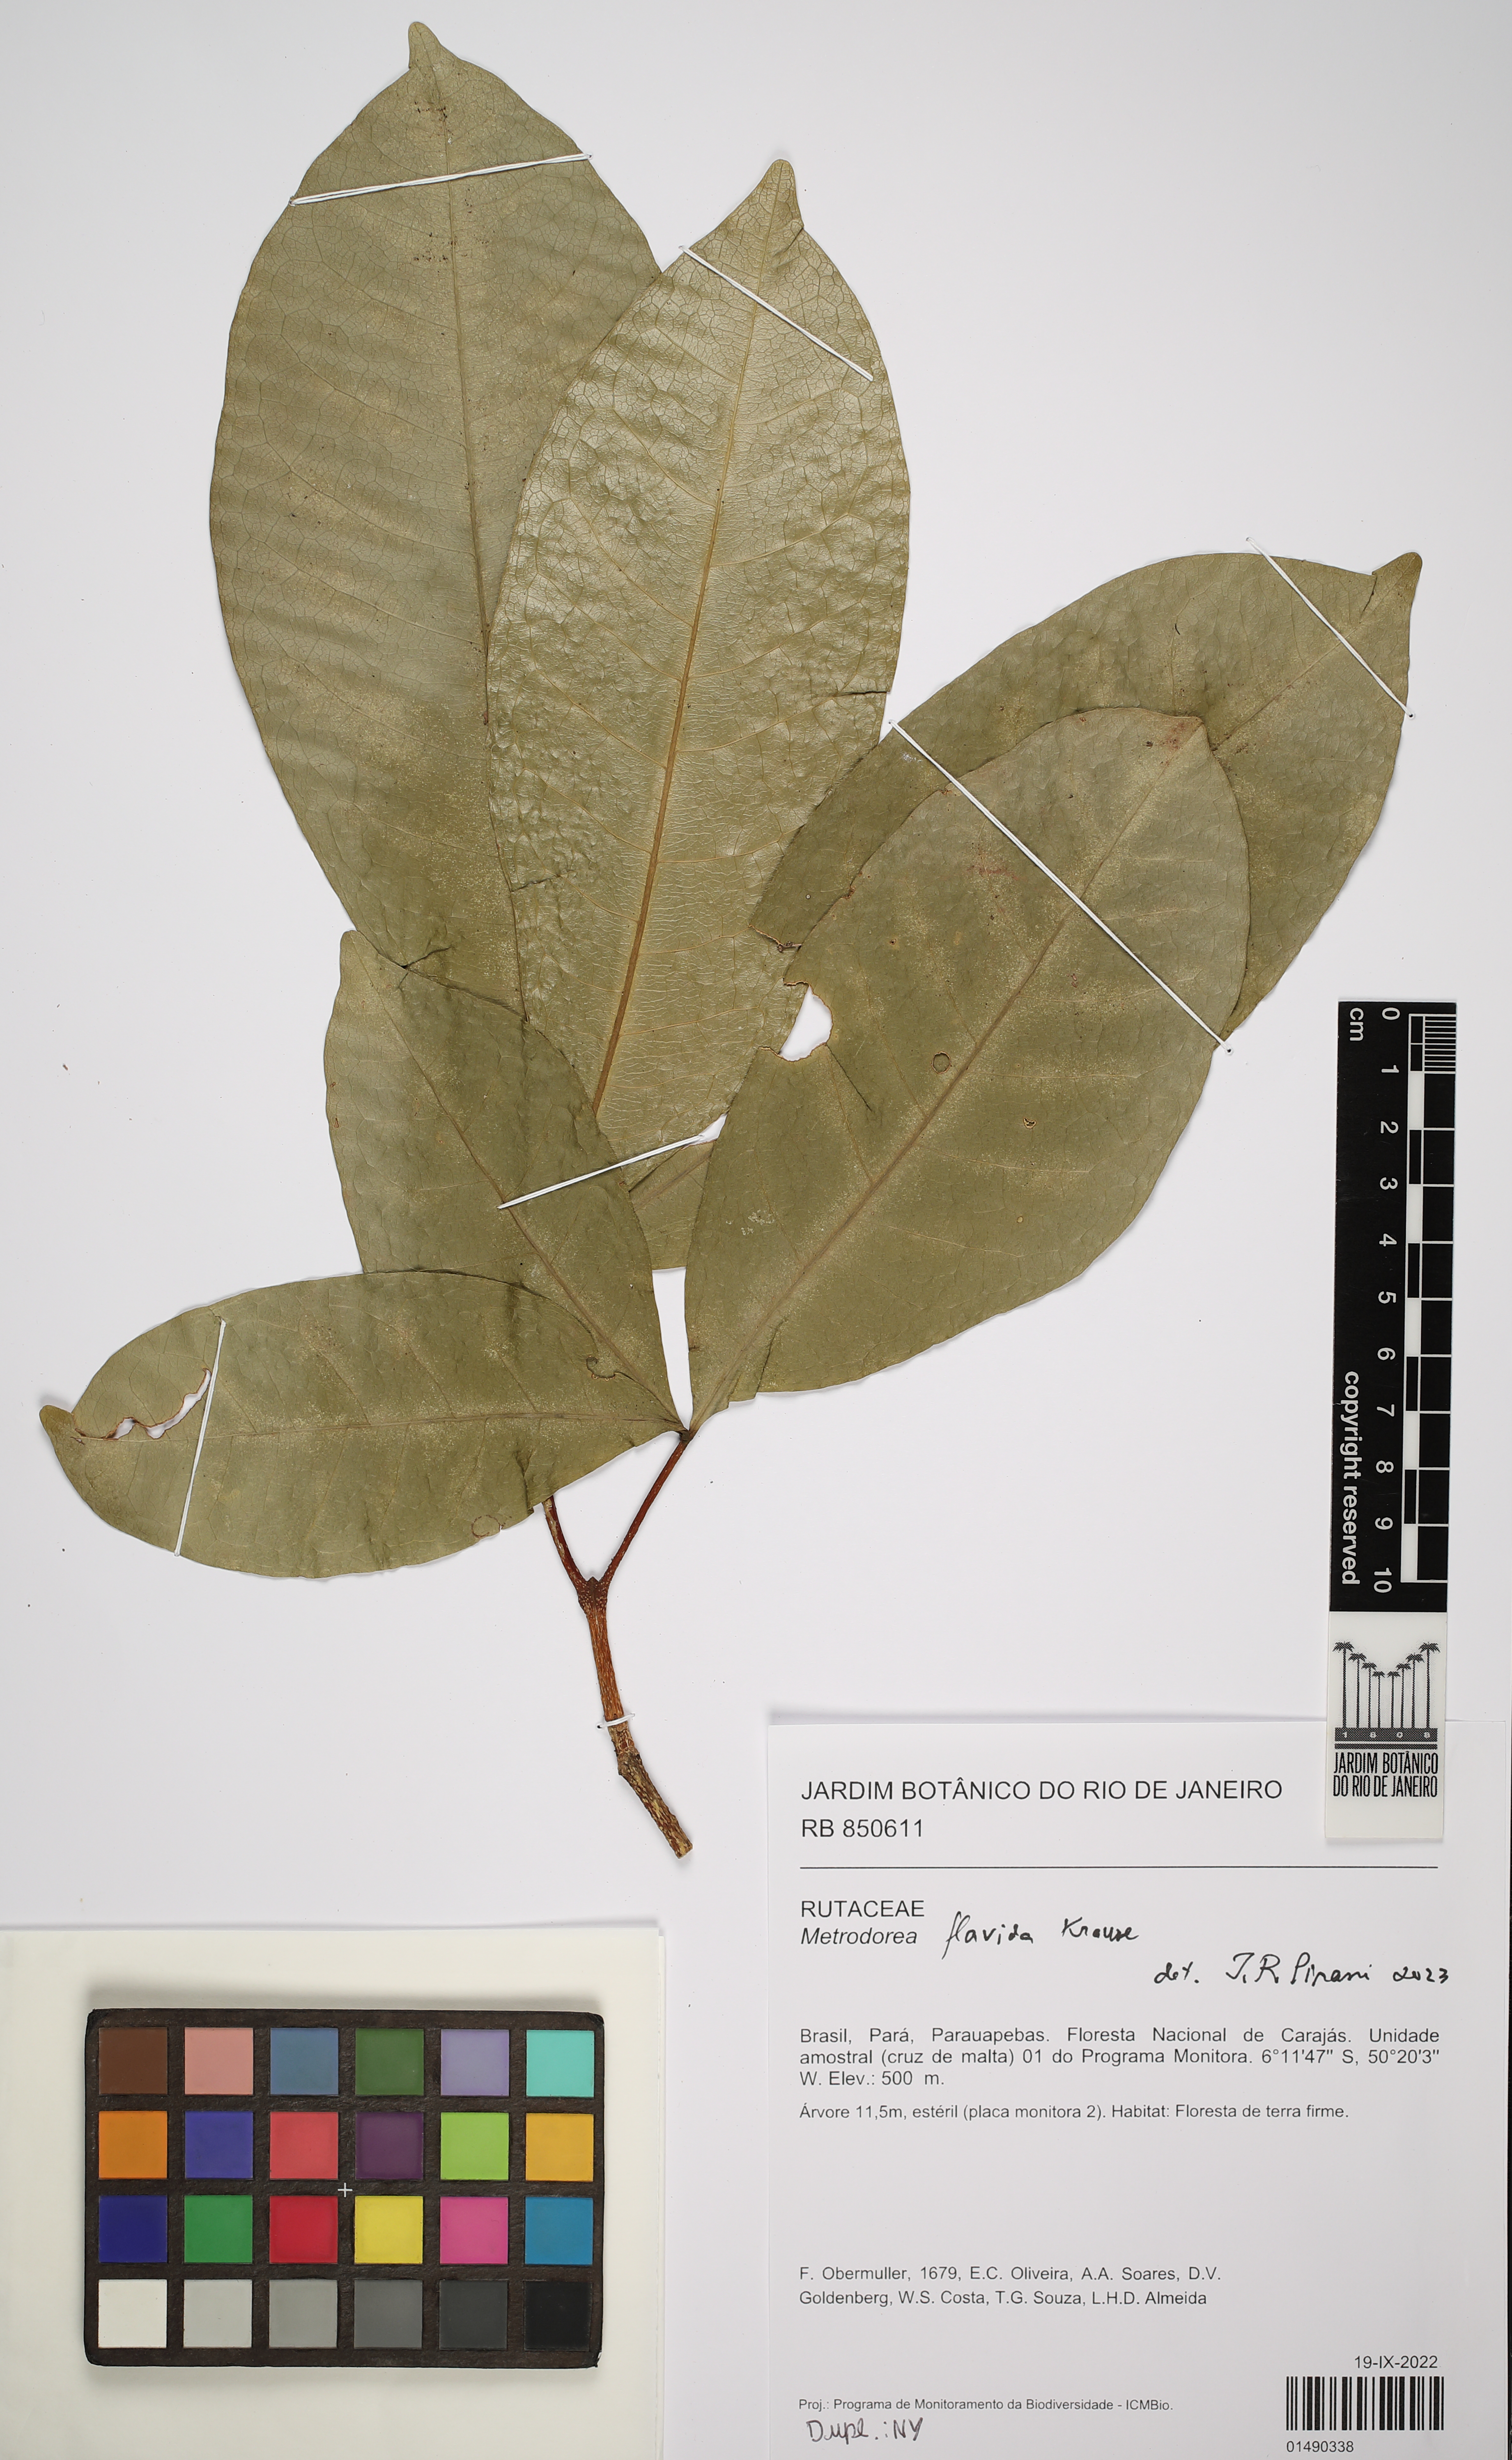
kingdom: Plantae
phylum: Tracheophyta
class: Magnoliopsida
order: Sapindales
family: Rutaceae
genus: Metrodorea
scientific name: Metrodorea flavida
